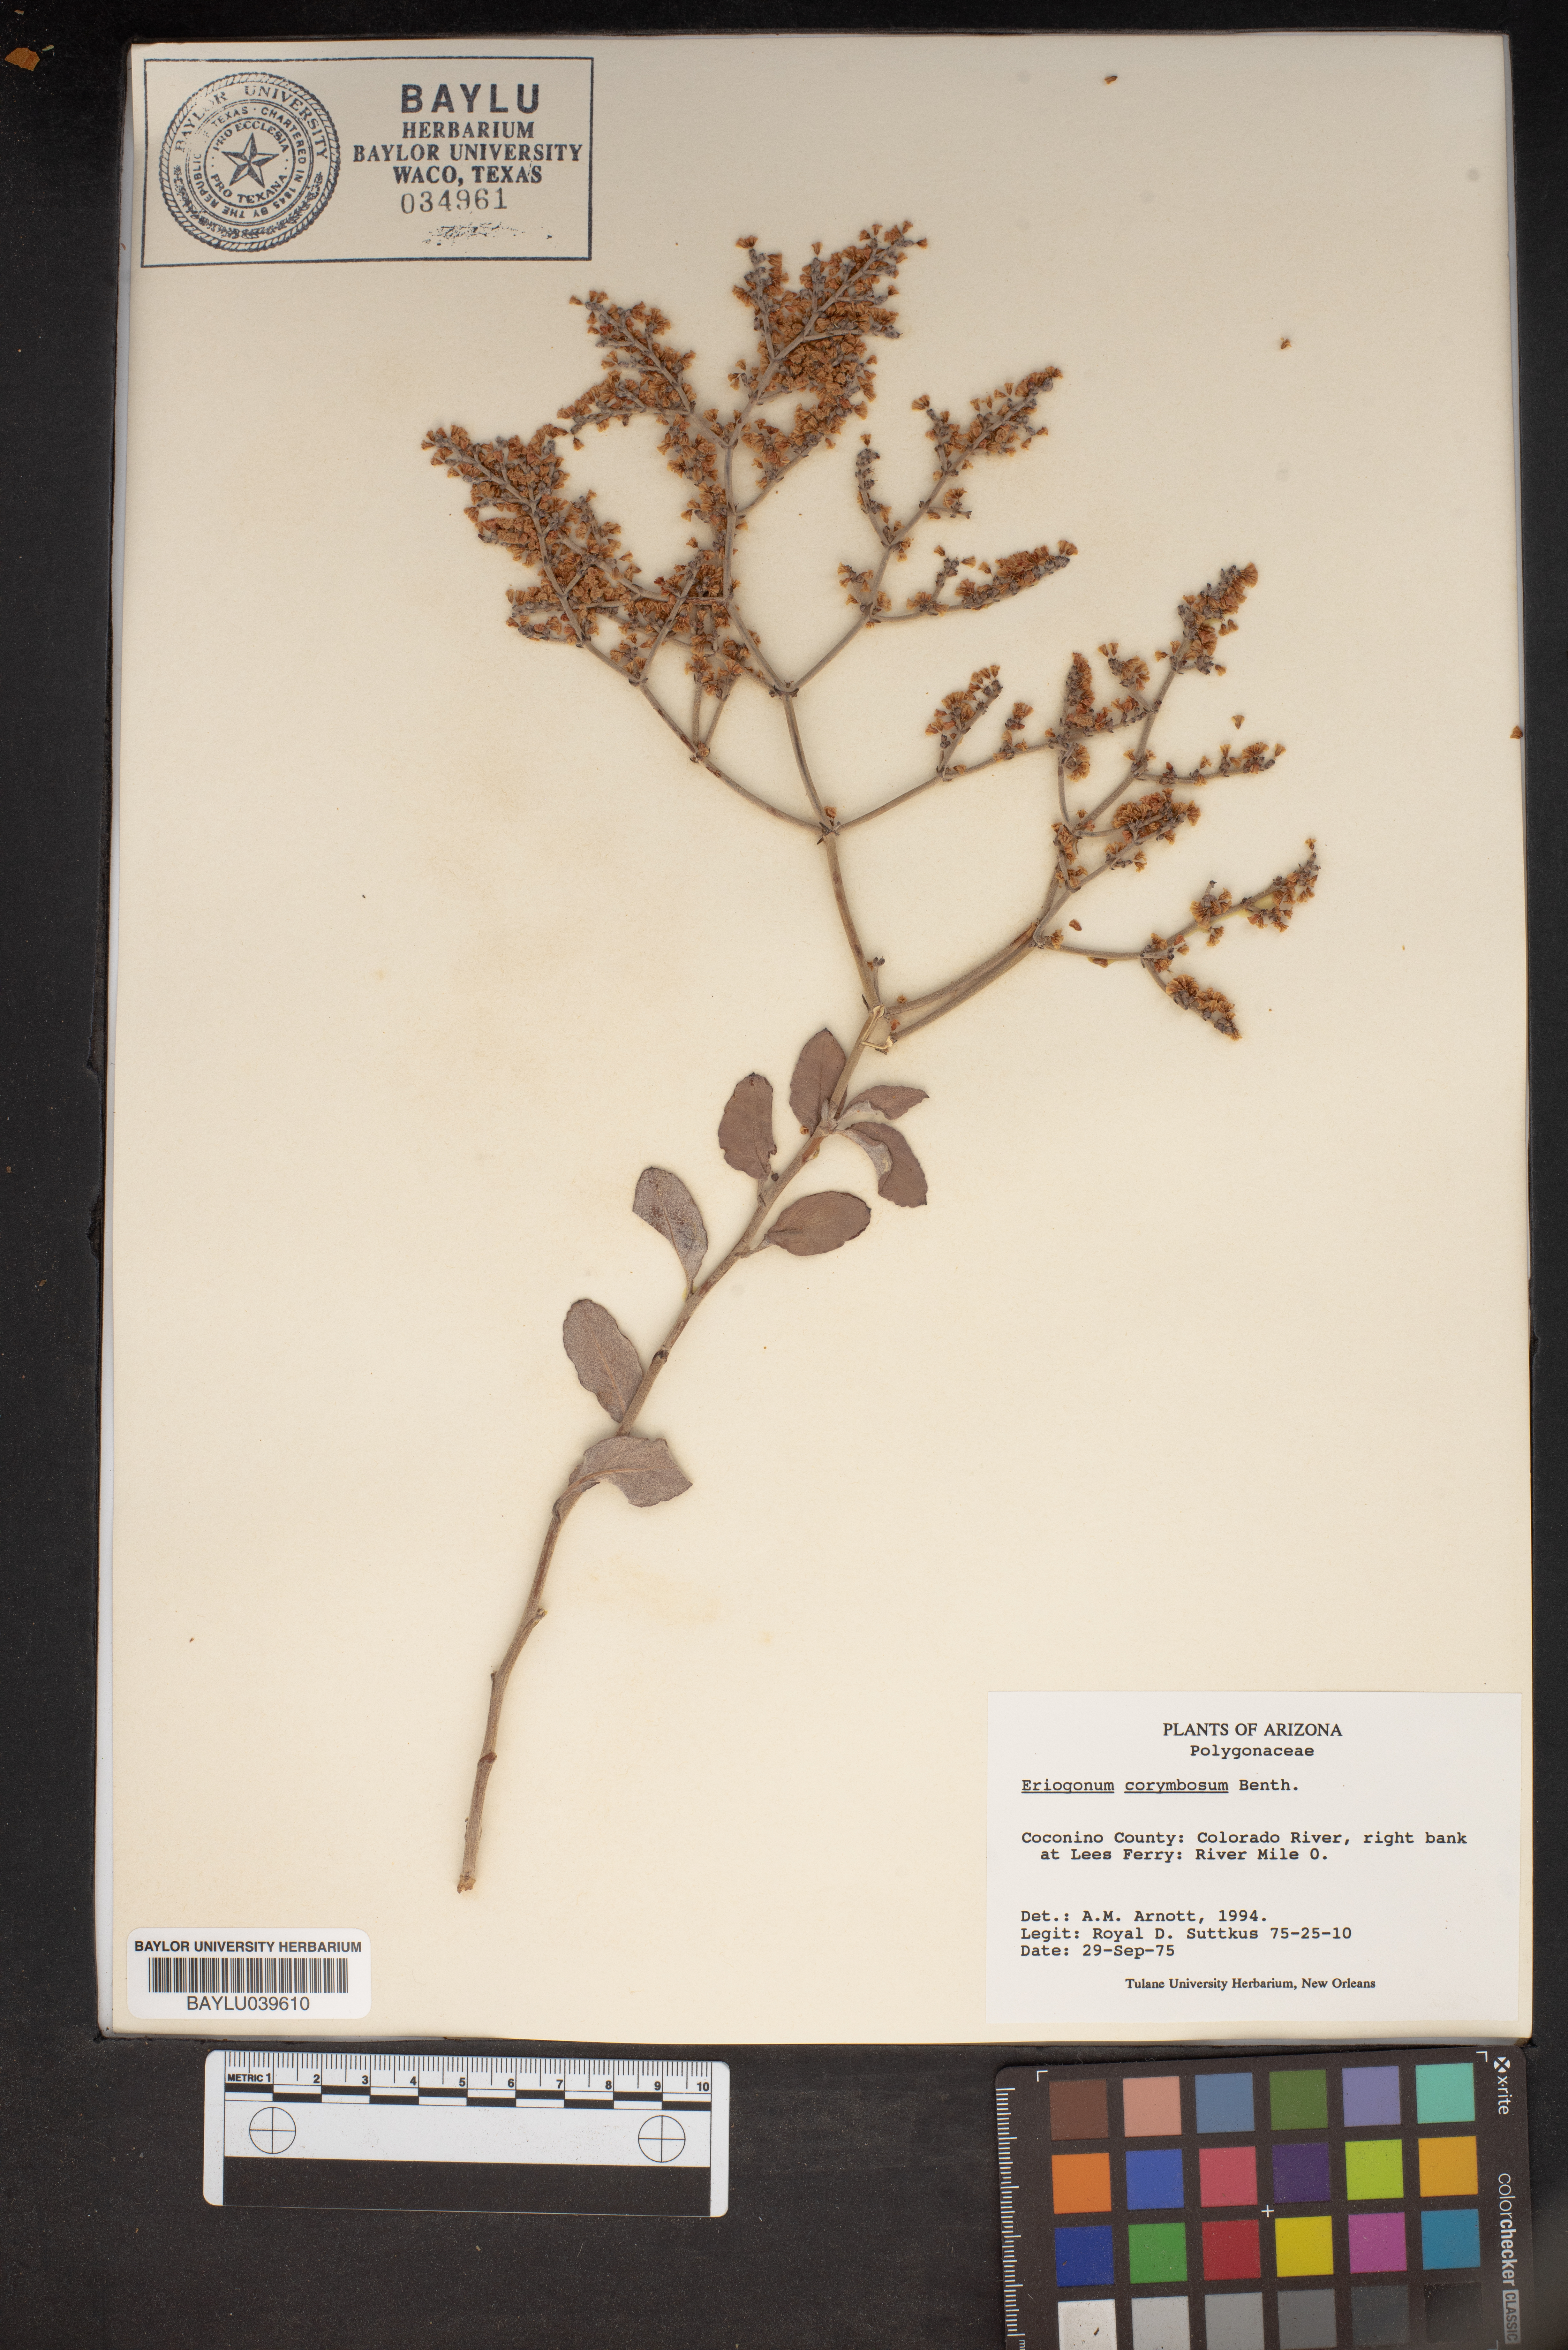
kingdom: Plantae
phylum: Tracheophyta
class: Magnoliopsida
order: Caryophyllales
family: Polygonaceae
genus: Eriogonum
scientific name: Eriogonum corymbosum
